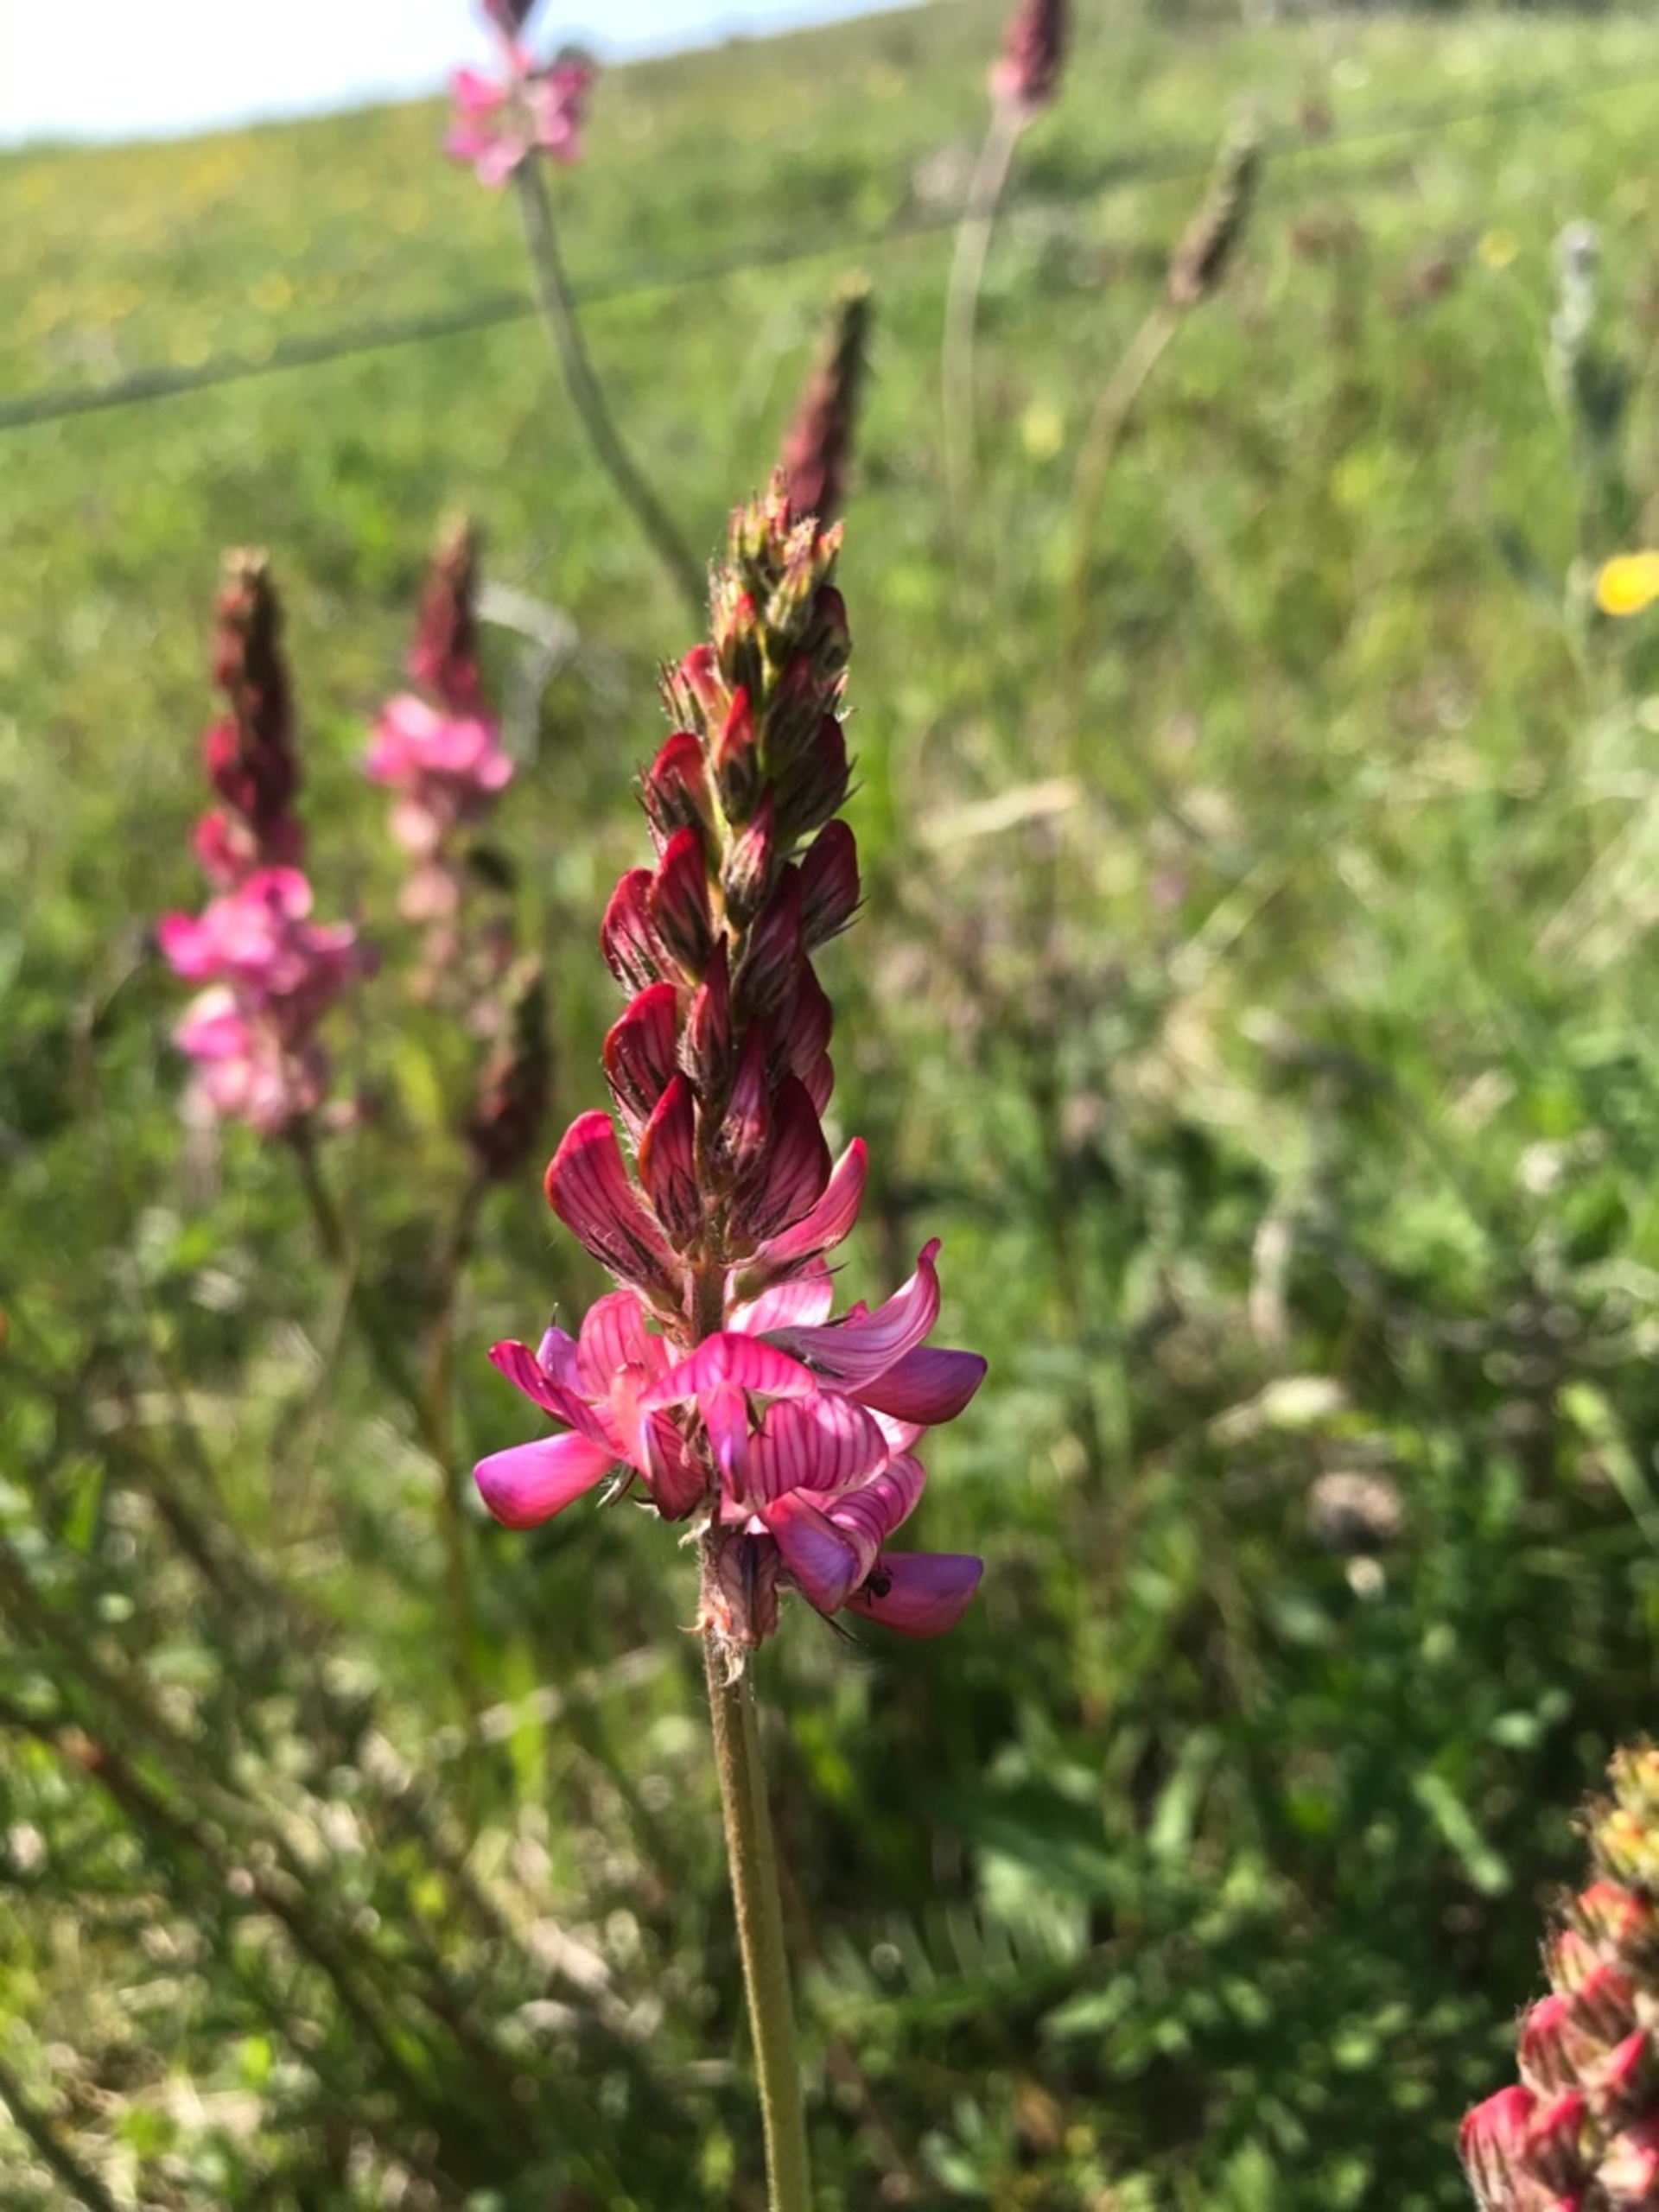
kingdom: Plantae
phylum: Tracheophyta
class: Magnoliopsida
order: Fabales
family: Fabaceae
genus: Onobrychis
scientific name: Onobrychis viciifolia
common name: Esparsette
